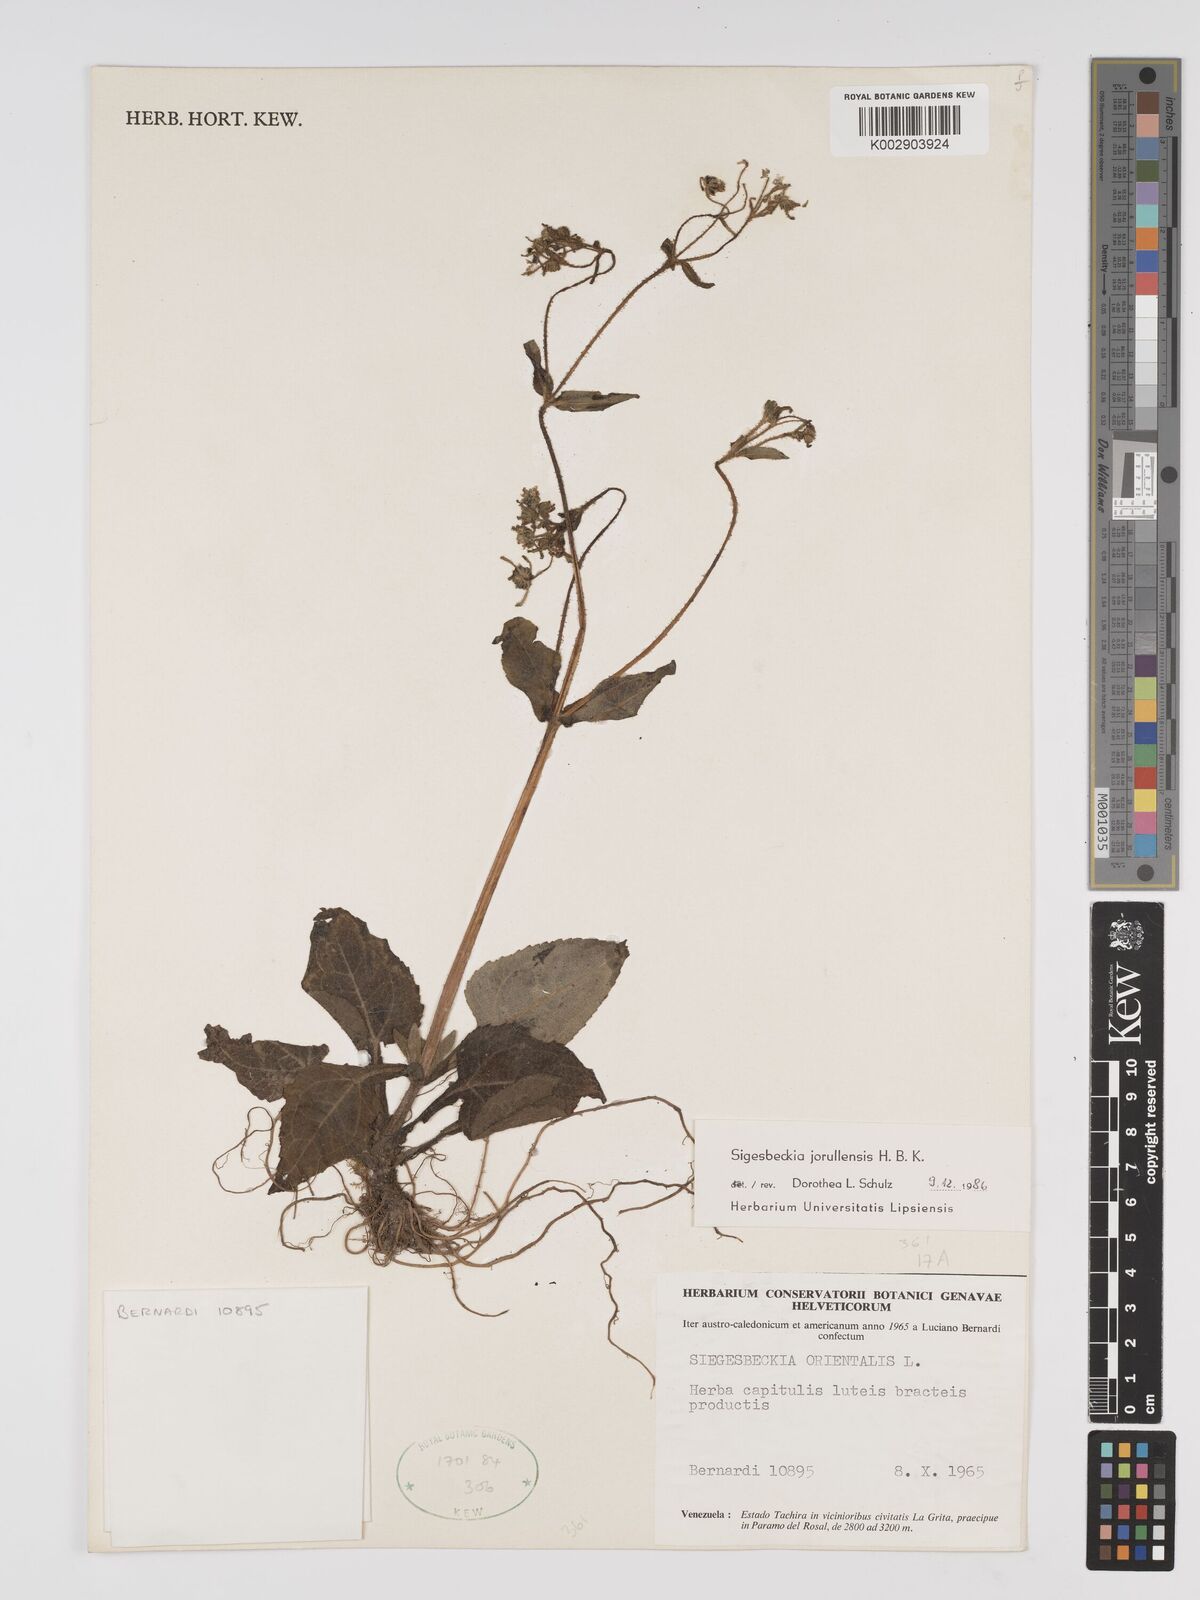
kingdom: Plantae
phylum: Tracheophyta
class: Magnoliopsida
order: Asterales
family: Asteraceae
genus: Sigesbeckia
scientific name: Sigesbeckia jorullensis
